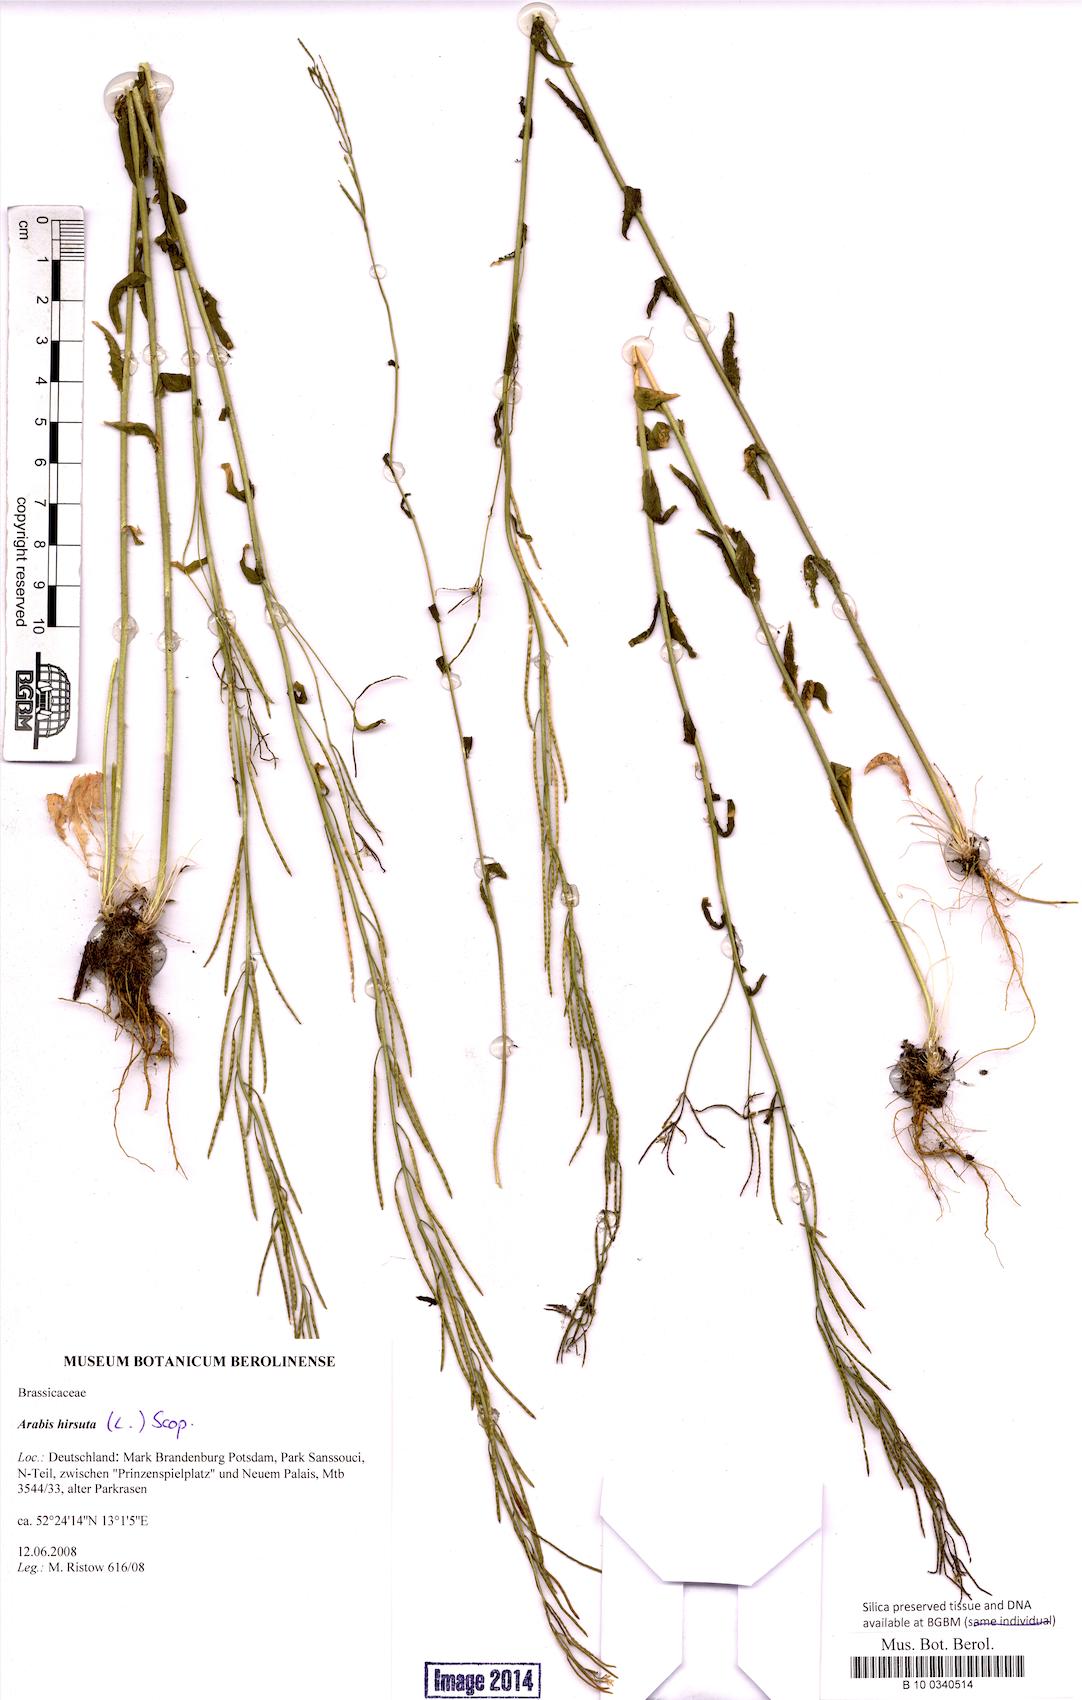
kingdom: Plantae
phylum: Tracheophyta
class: Magnoliopsida
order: Brassicales
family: Brassicaceae
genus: Arabis
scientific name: Arabis hirsuta
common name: Hairy rock-cress
